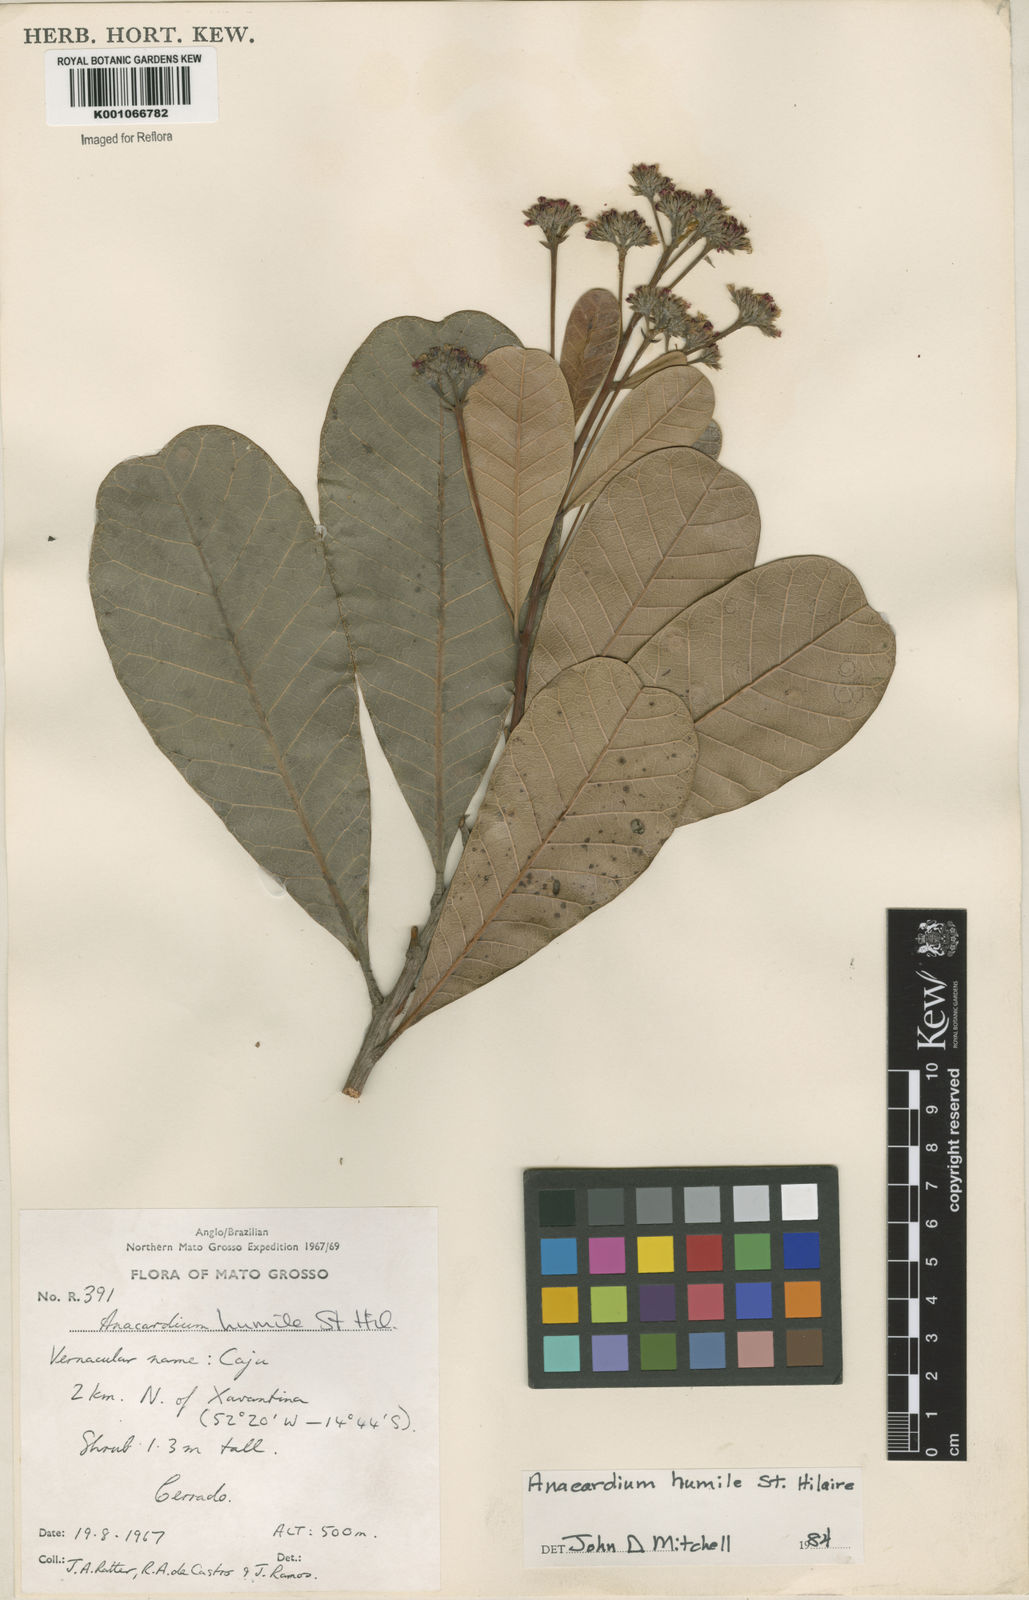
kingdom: Plantae
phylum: Tracheophyta
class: Magnoliopsida
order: Sapindales
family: Anacardiaceae
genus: Anacardium
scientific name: Anacardium humile
